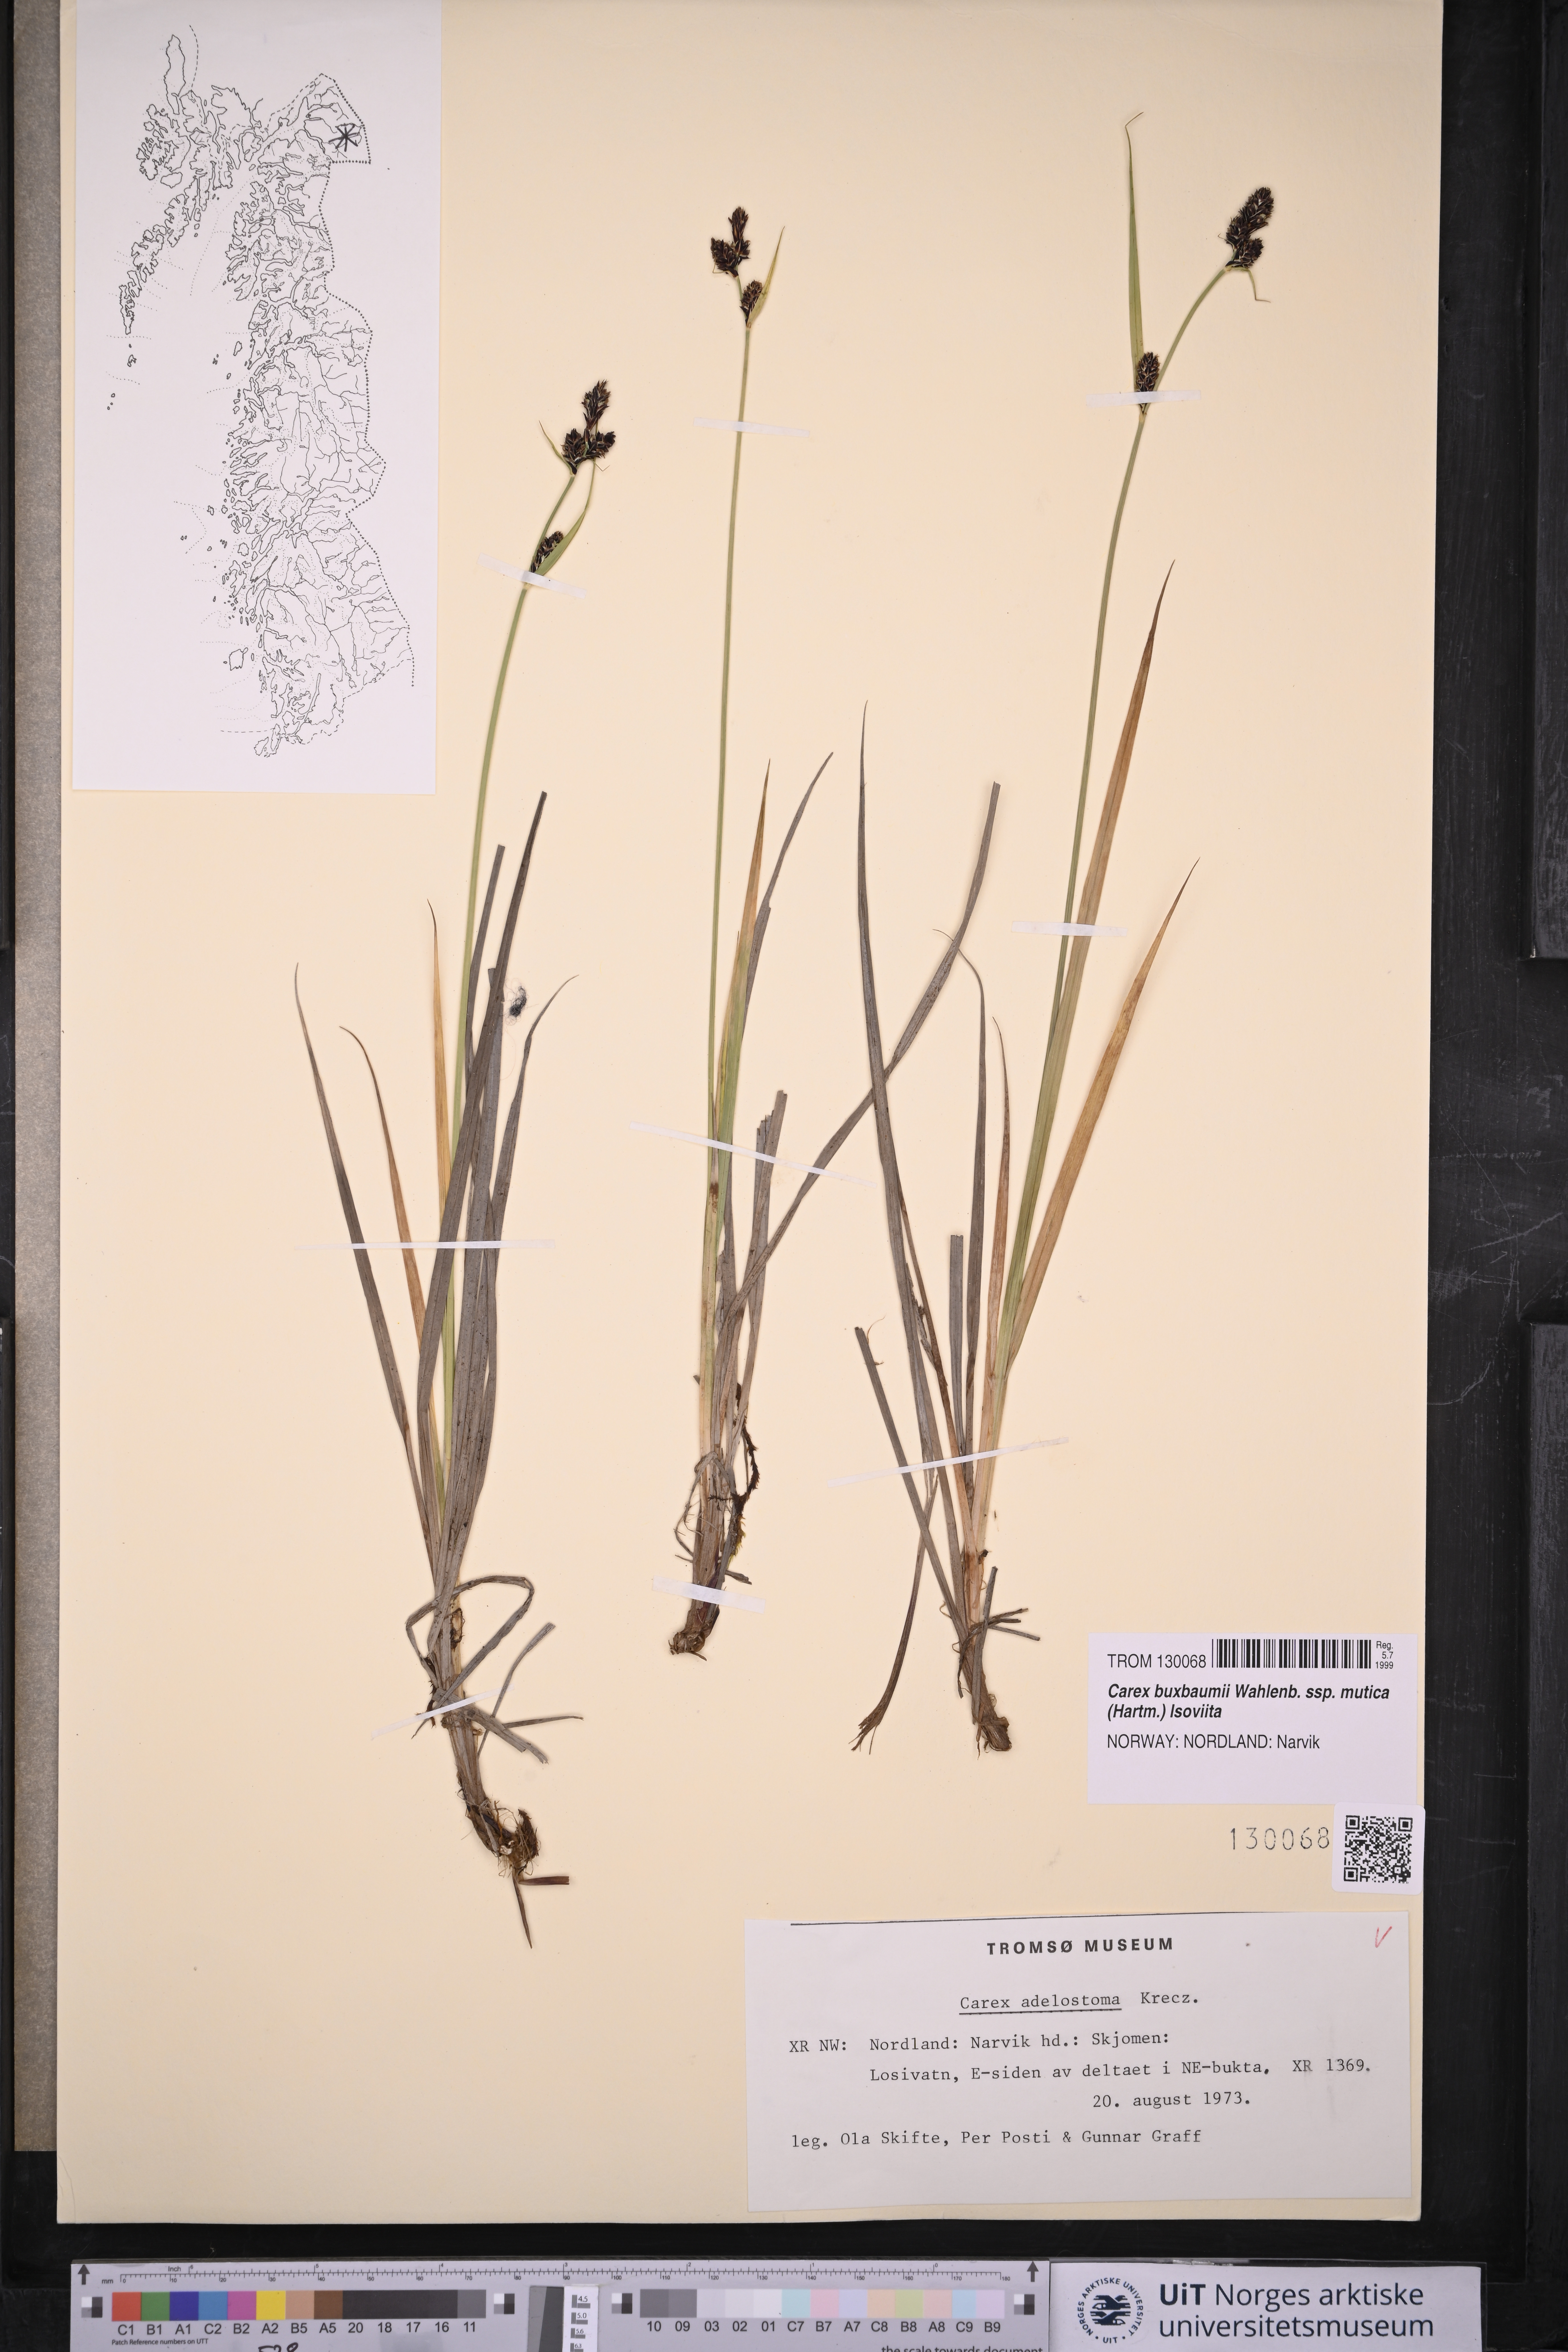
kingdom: Plantae
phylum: Tracheophyta
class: Liliopsida
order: Poales
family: Cyperaceae
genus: Carex
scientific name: Carex adelostoma
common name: Circumpolar sedge
